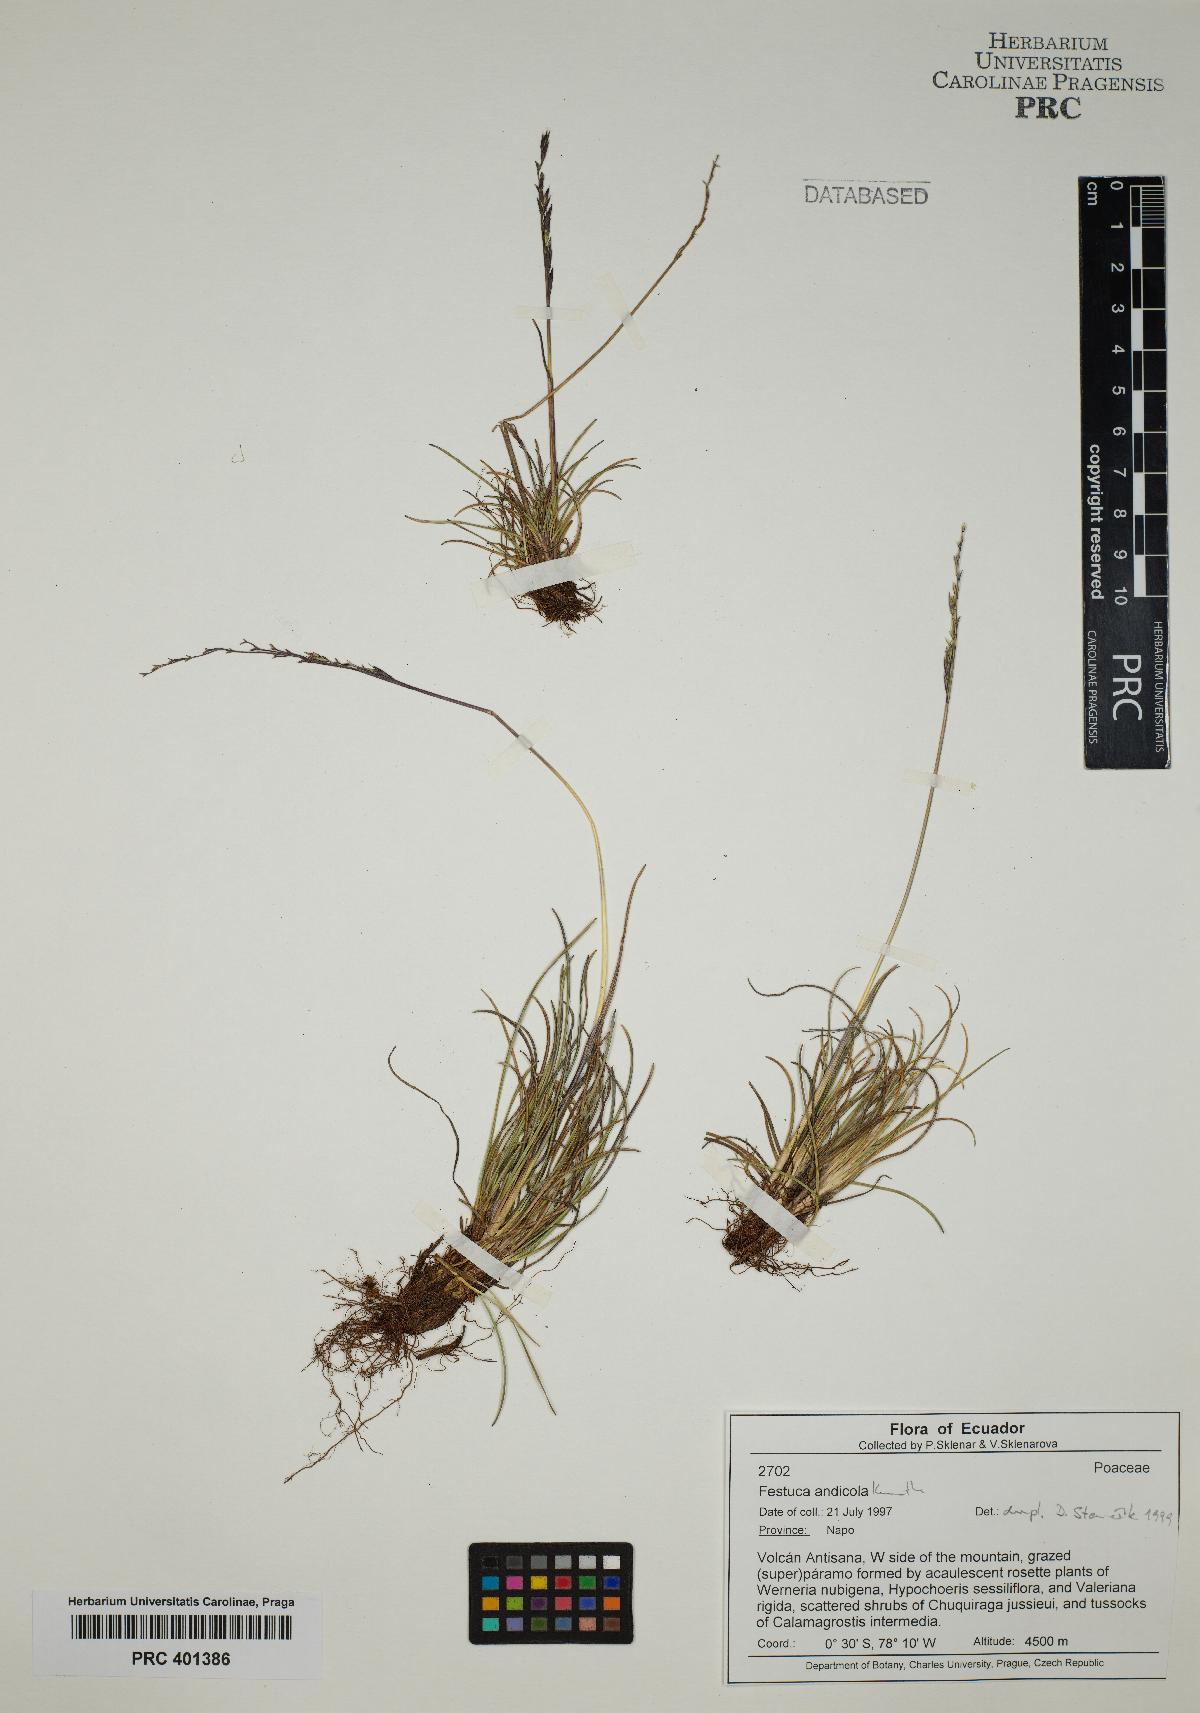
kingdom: Plantae
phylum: Tracheophyta
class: Liliopsida
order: Poales
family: Poaceae
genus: Festuca
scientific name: Festuca andicola
